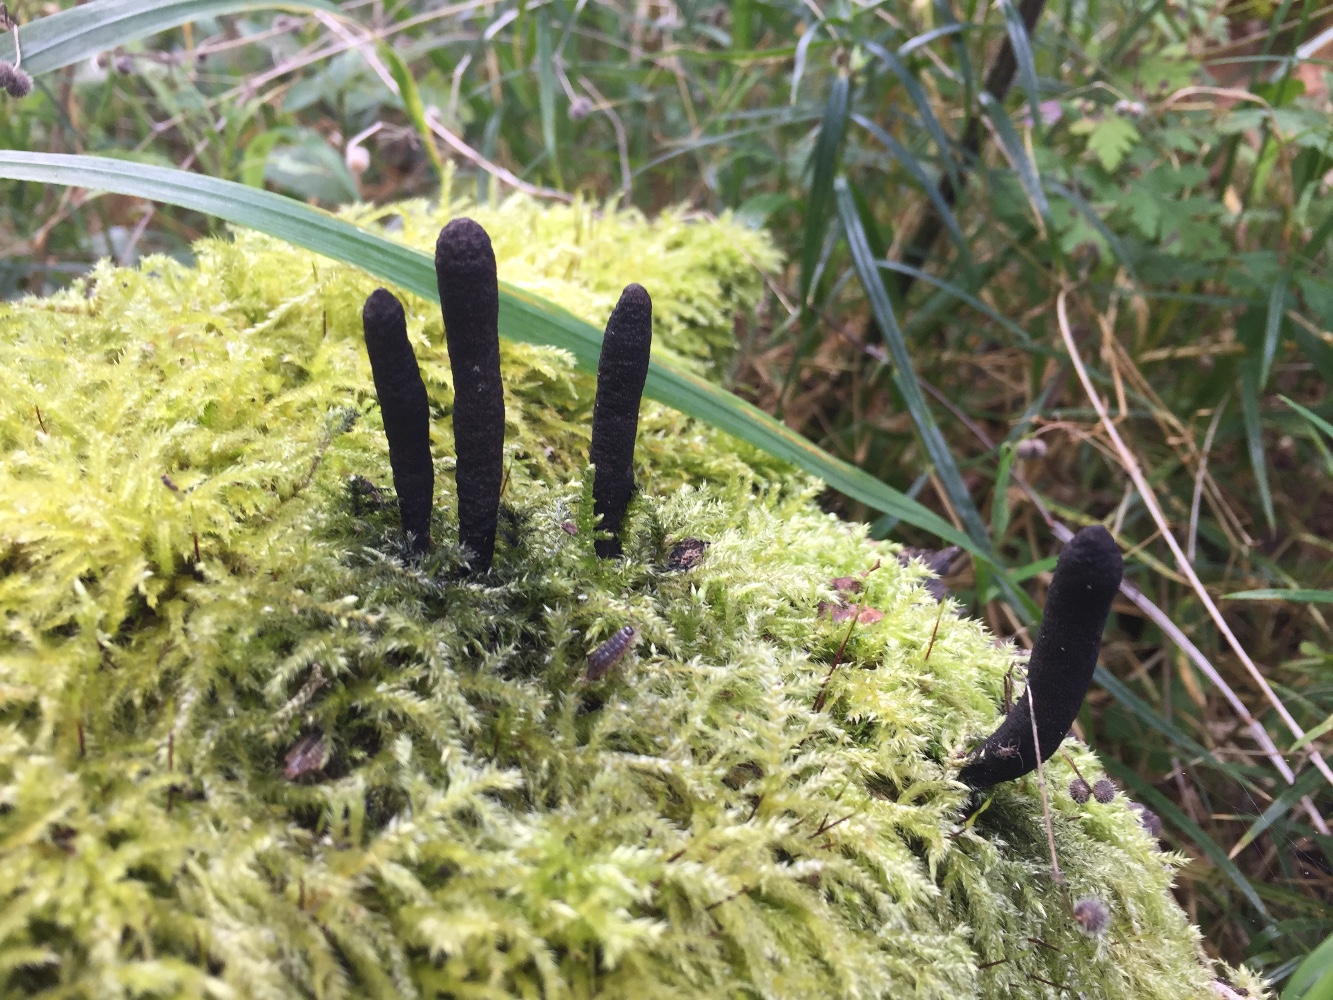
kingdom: Fungi
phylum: Ascomycota
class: Sordariomycetes
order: Xylariales
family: Xylariaceae
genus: Xylaria
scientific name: Xylaria longipes
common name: slank stødsvamp
